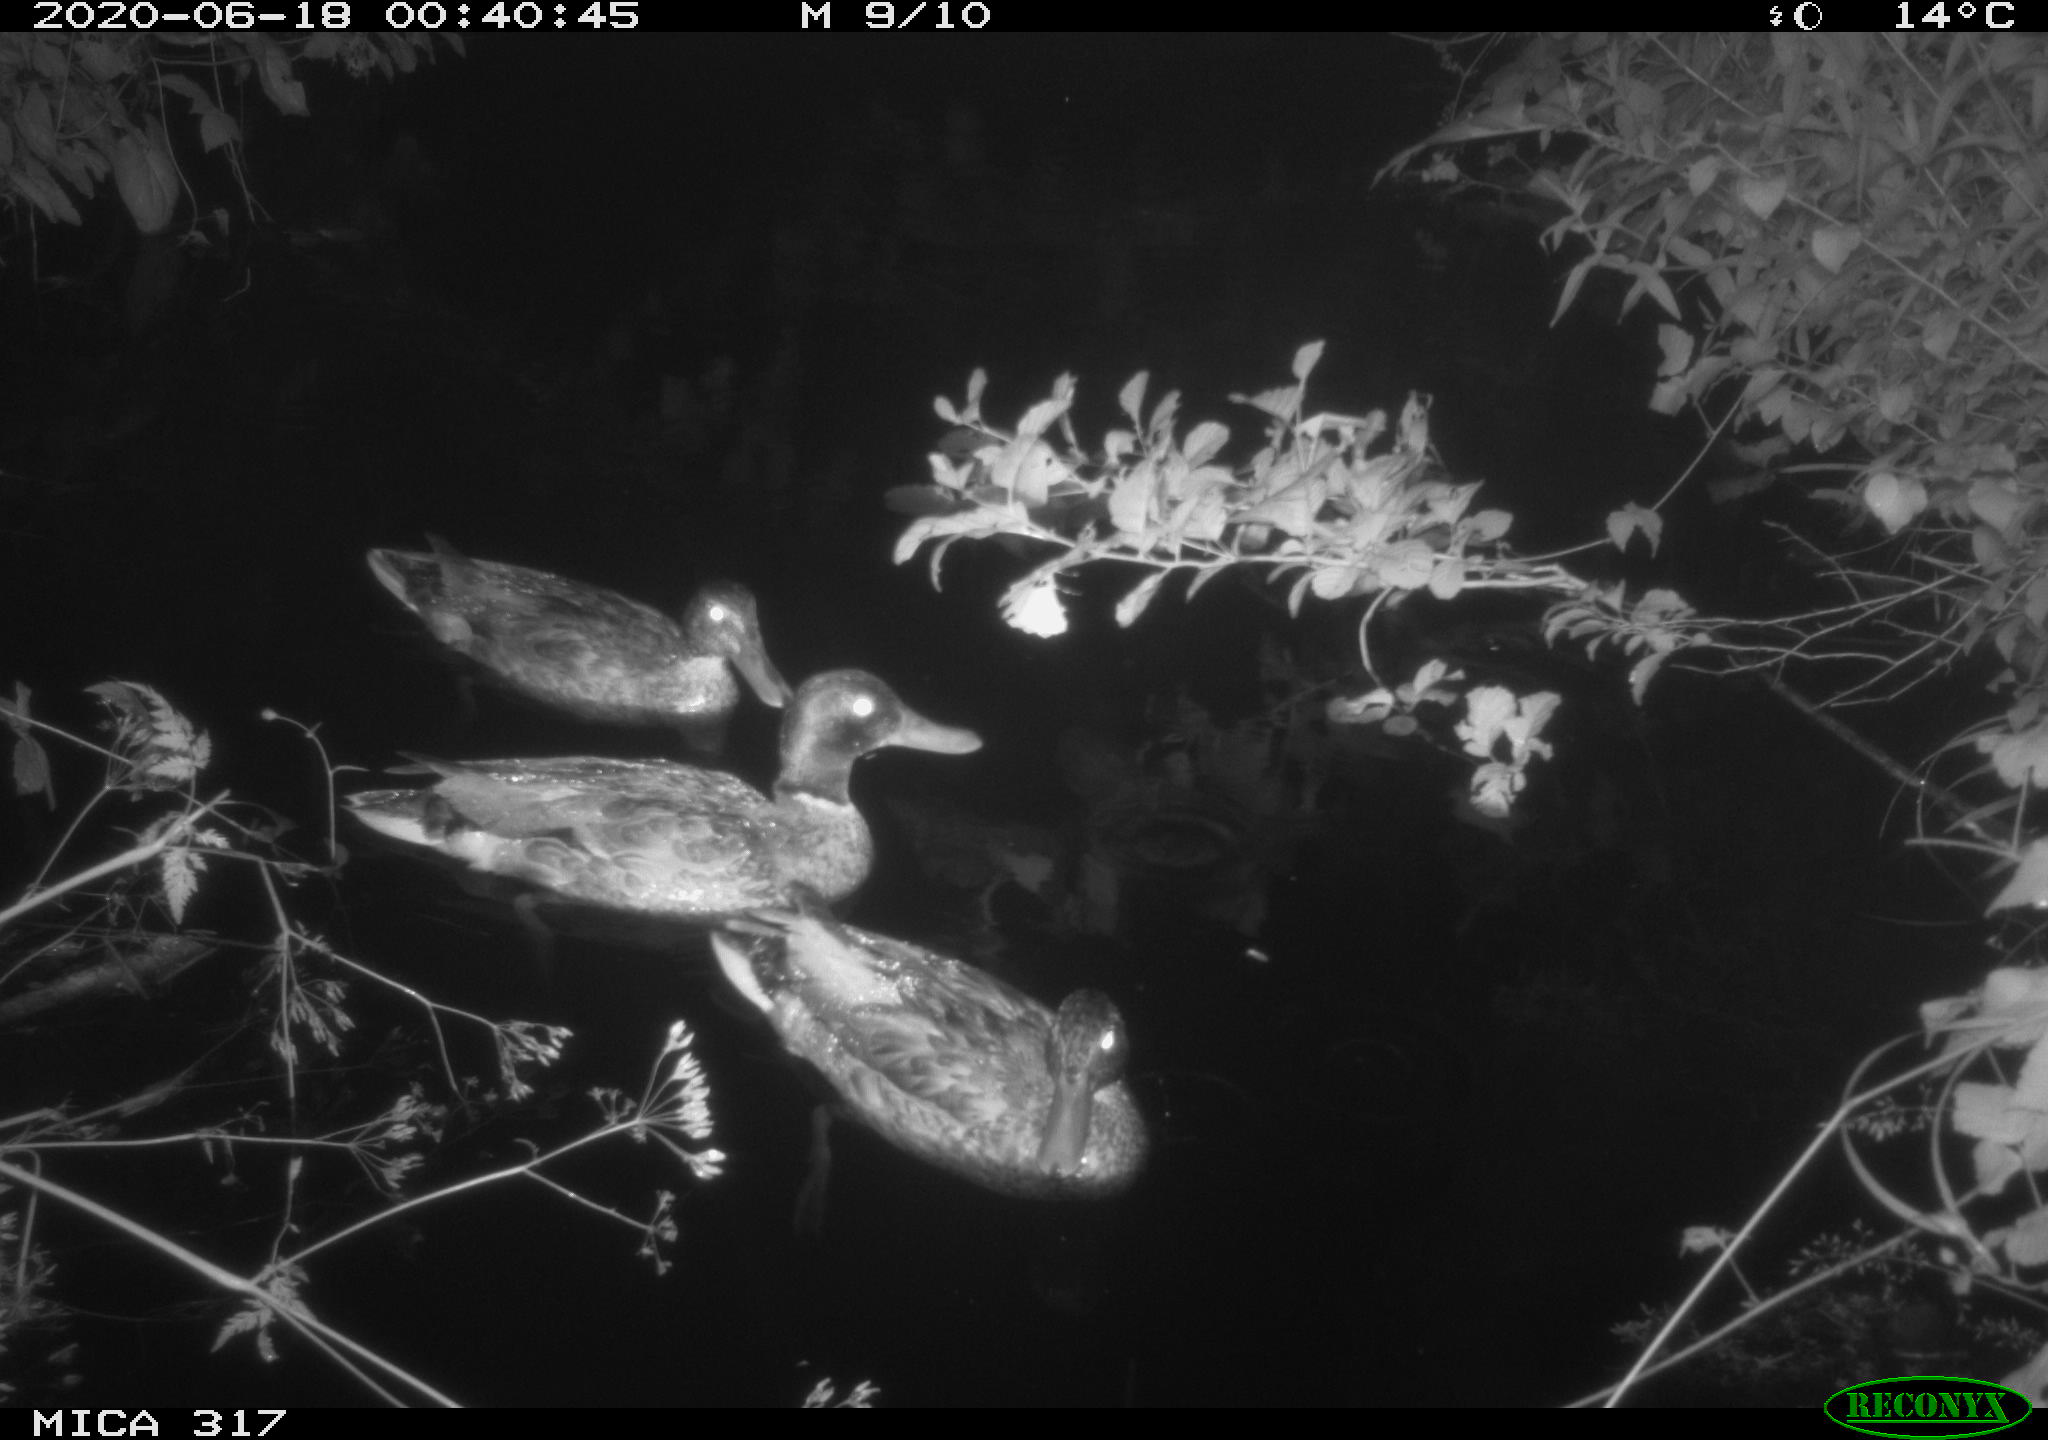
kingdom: Animalia
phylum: Chordata
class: Aves
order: Anseriformes
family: Anatidae
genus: Anas
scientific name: Anas platyrhynchos
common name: Mallard
